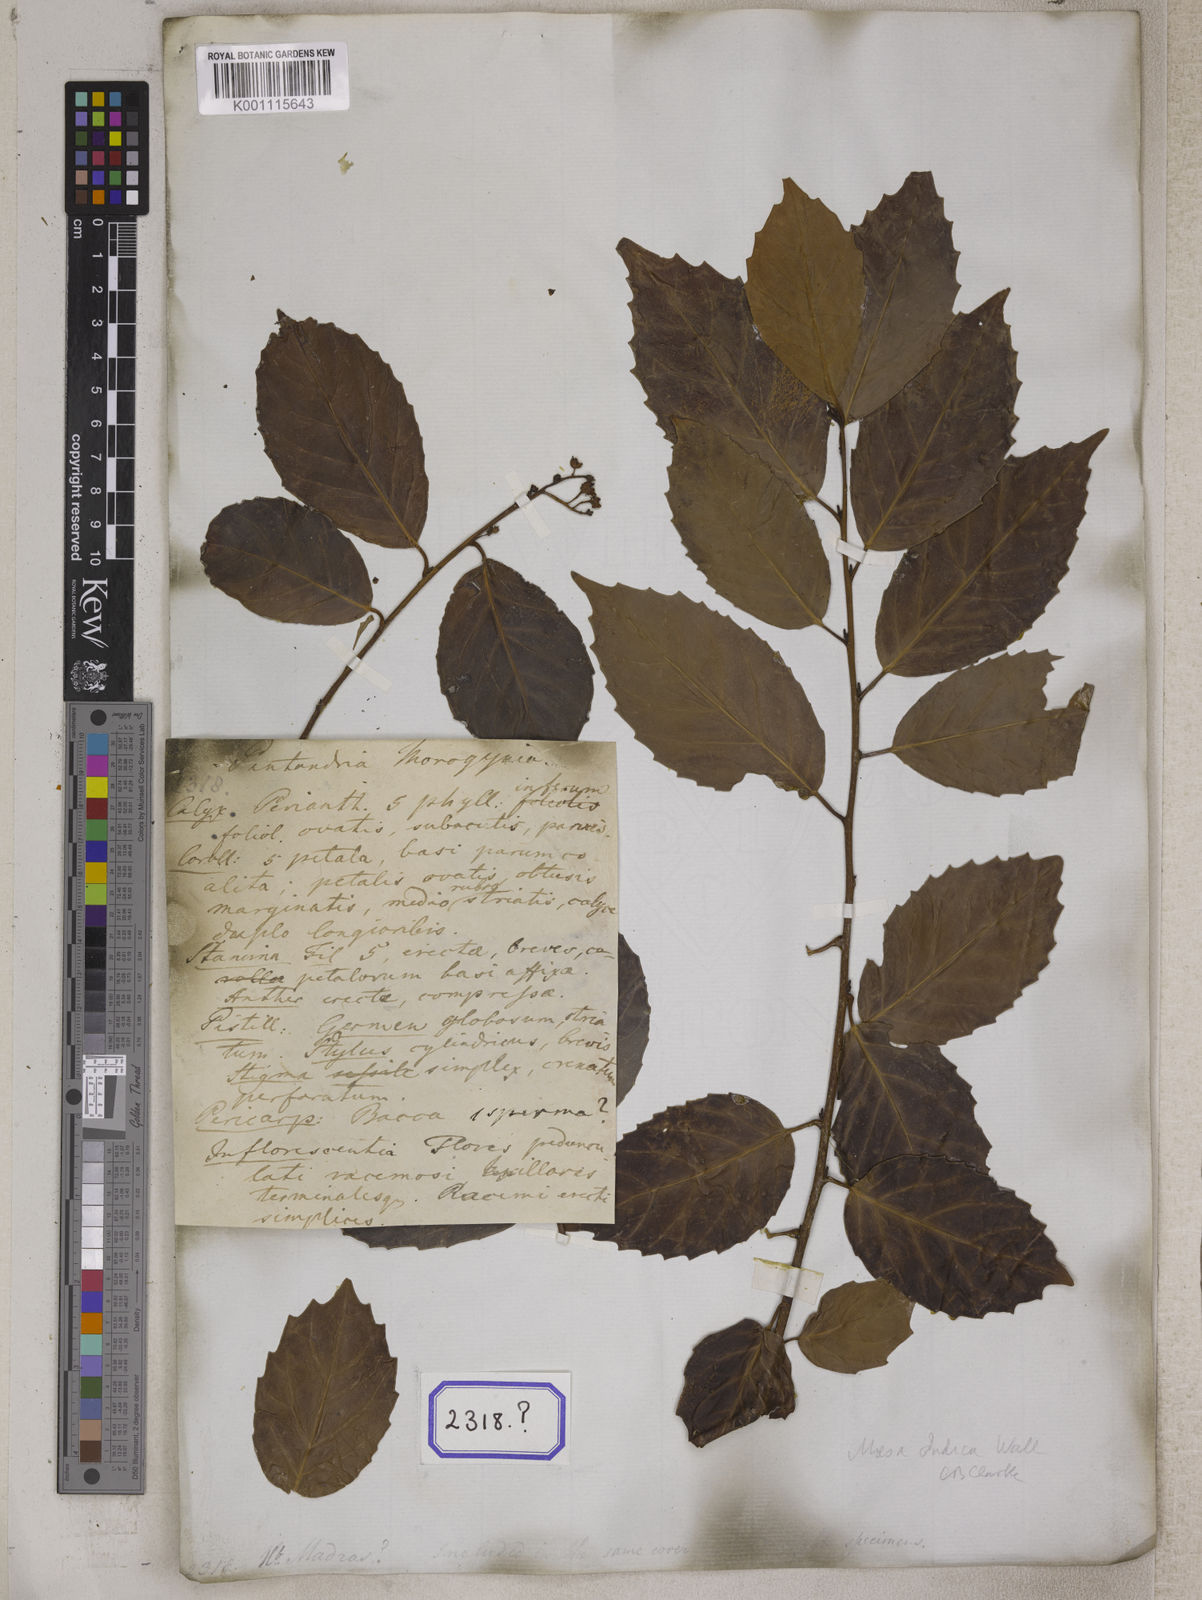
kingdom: Plantae
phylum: Tracheophyta
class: Magnoliopsida
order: Ericales
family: Primulaceae
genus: Maesa
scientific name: Maesa indica
